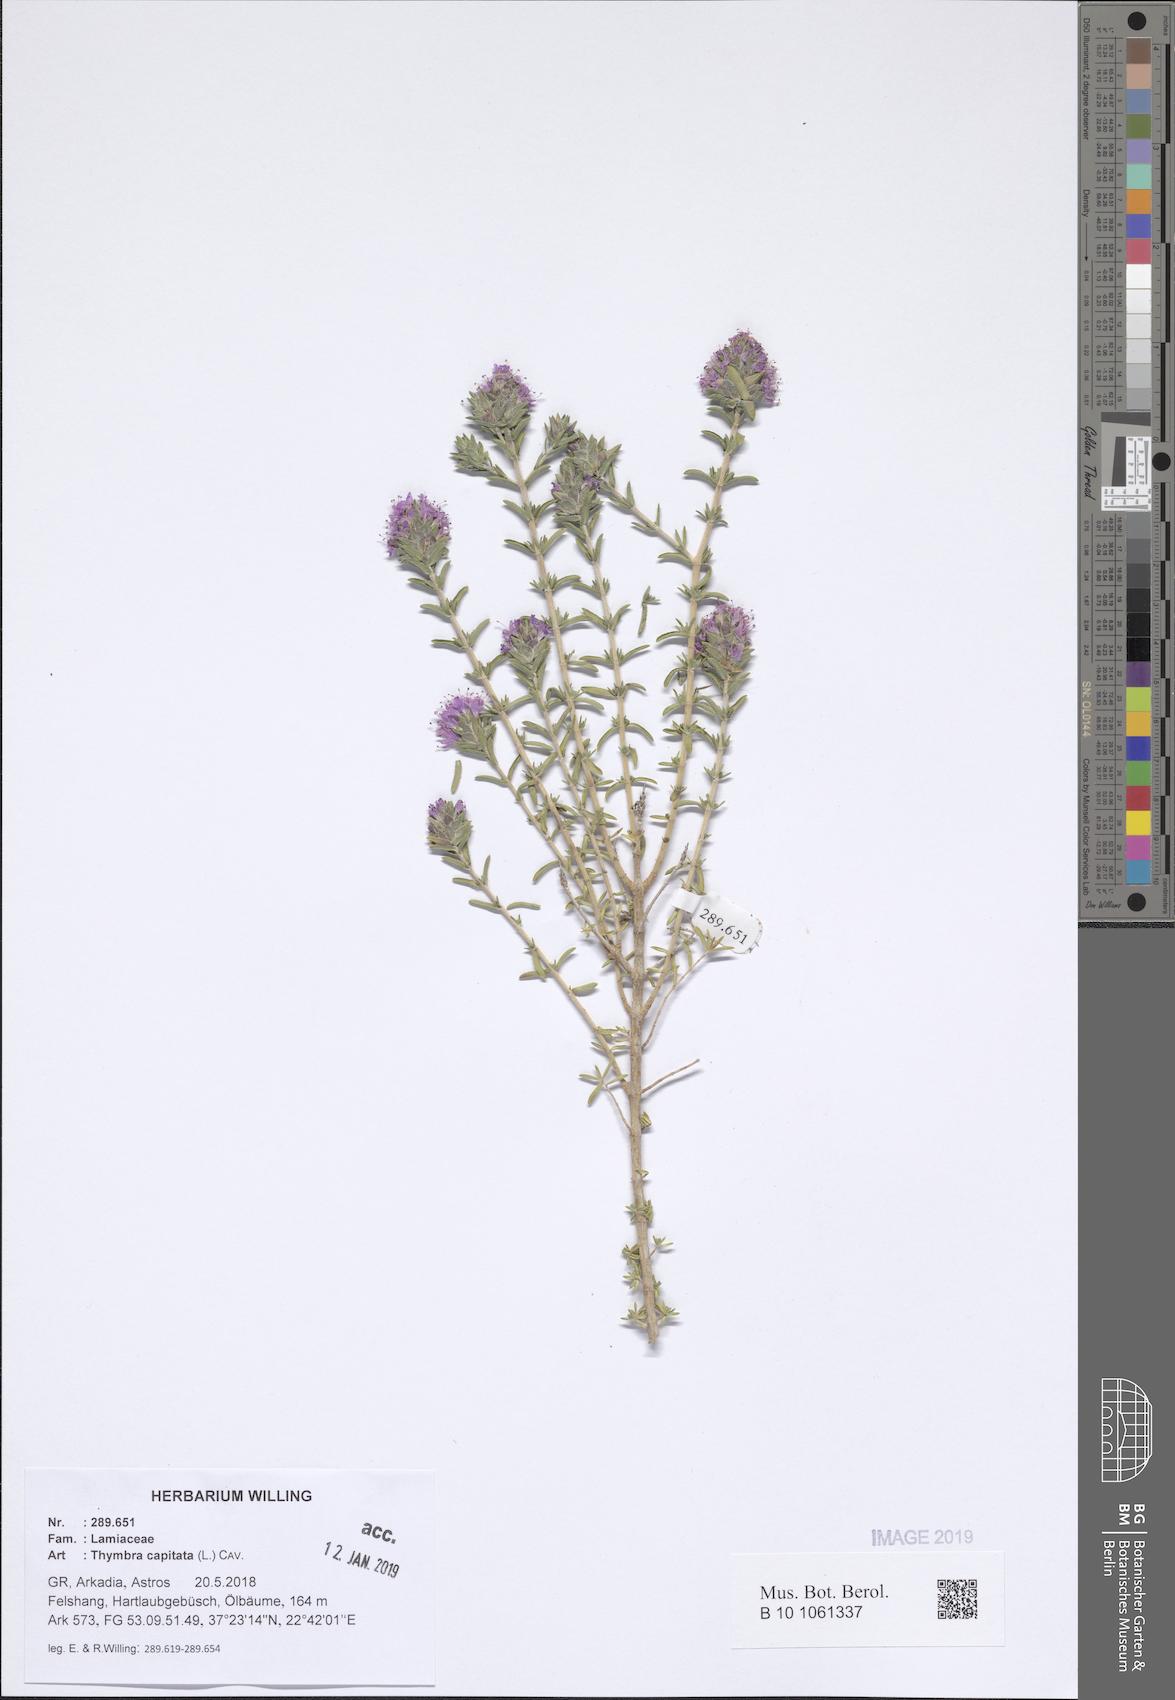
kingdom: Plantae
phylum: Tracheophyta
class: Magnoliopsida
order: Lamiales
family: Lamiaceae
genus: Thymbra
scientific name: Thymbra capitata
